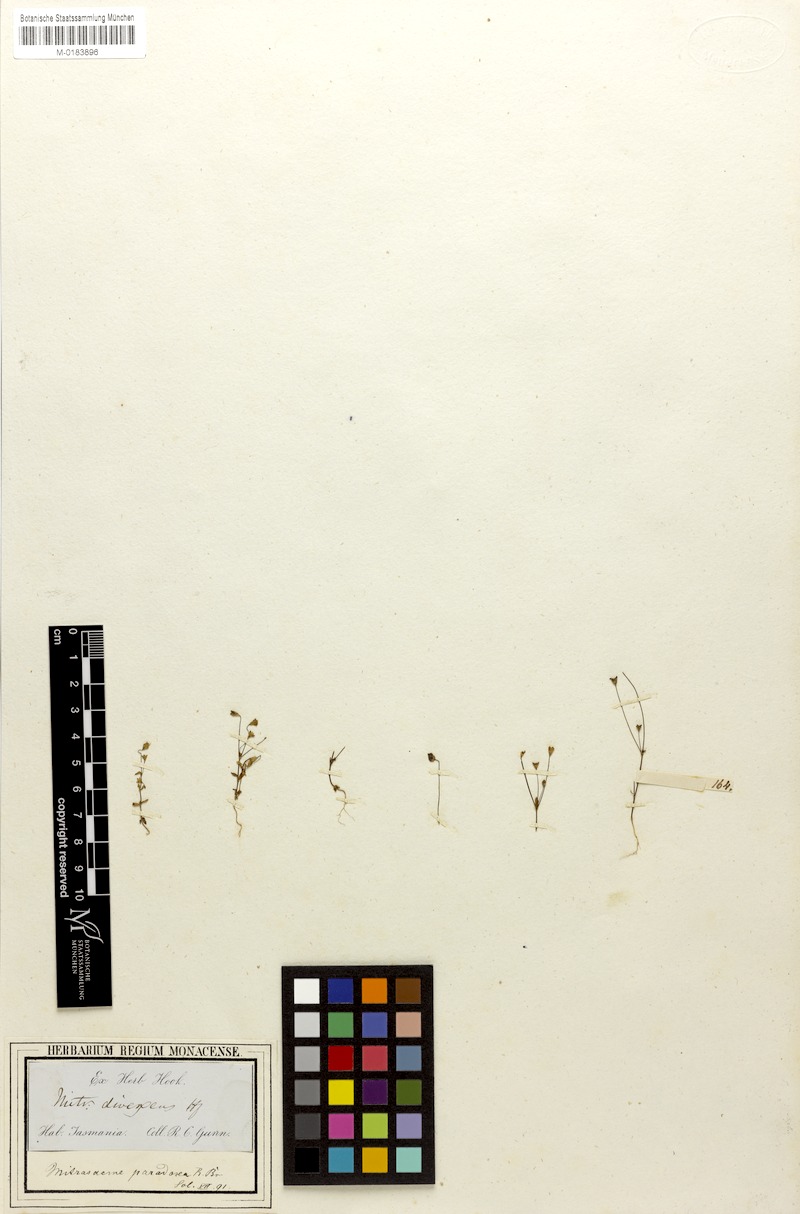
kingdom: Plantae
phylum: Tracheophyta
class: Magnoliopsida
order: Gentianales
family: Loganiaceae
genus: Phyllangium
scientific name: Phyllangium divergens
